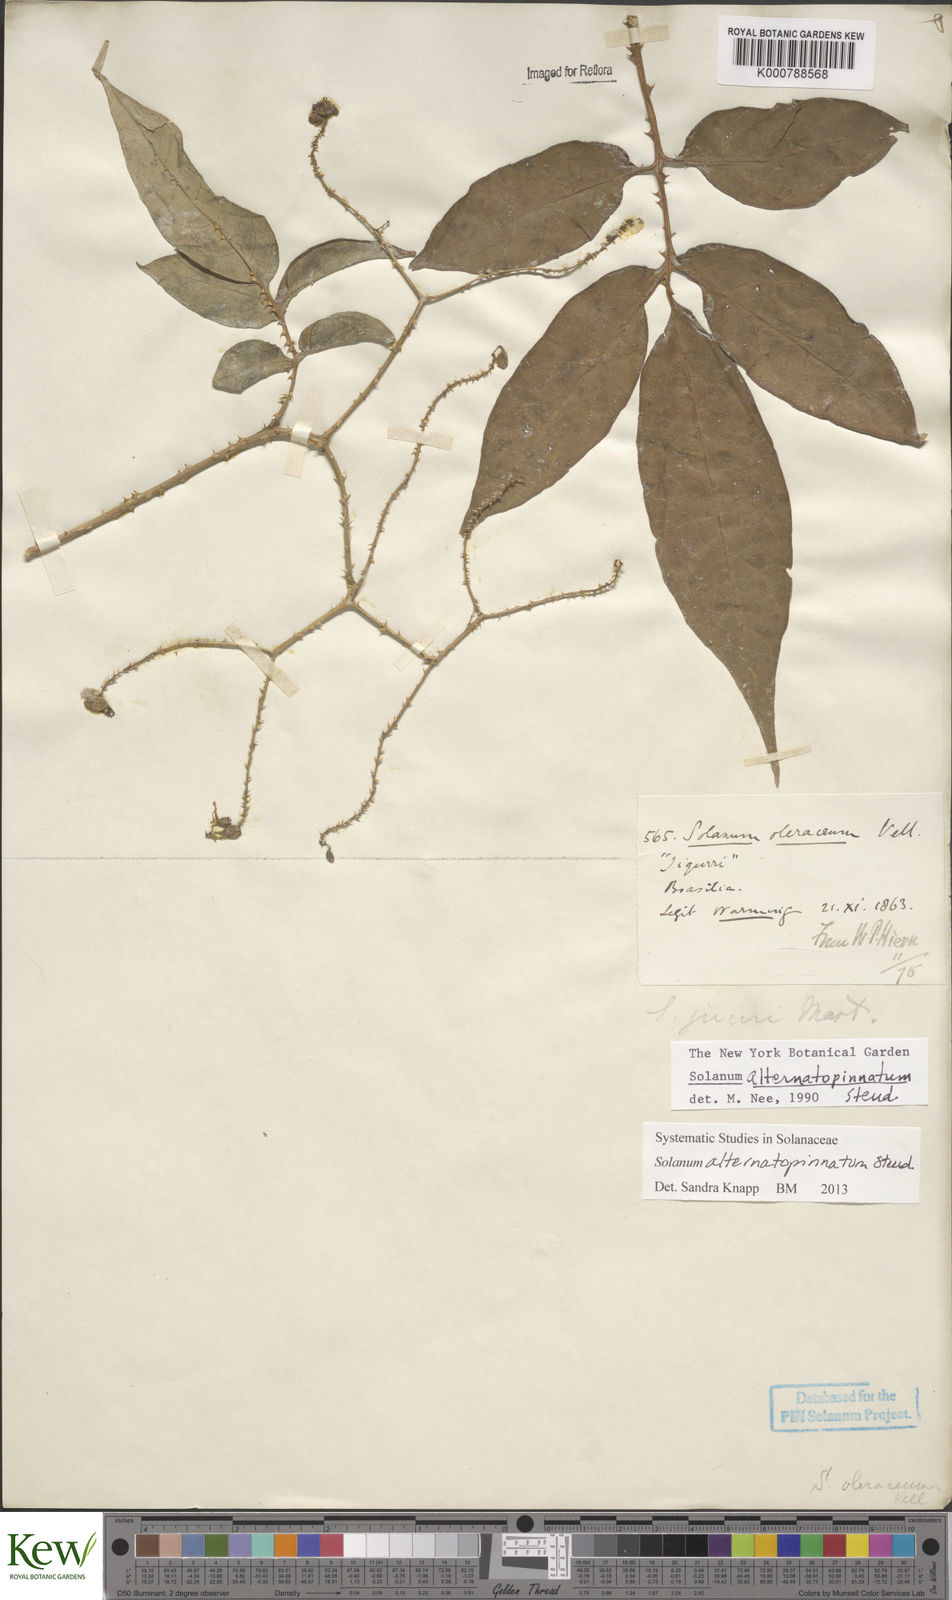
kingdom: Plantae
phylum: Tracheophyta
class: Magnoliopsida
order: Solanales
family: Solanaceae
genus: Solanum
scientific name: Solanum alternatopinnatum
